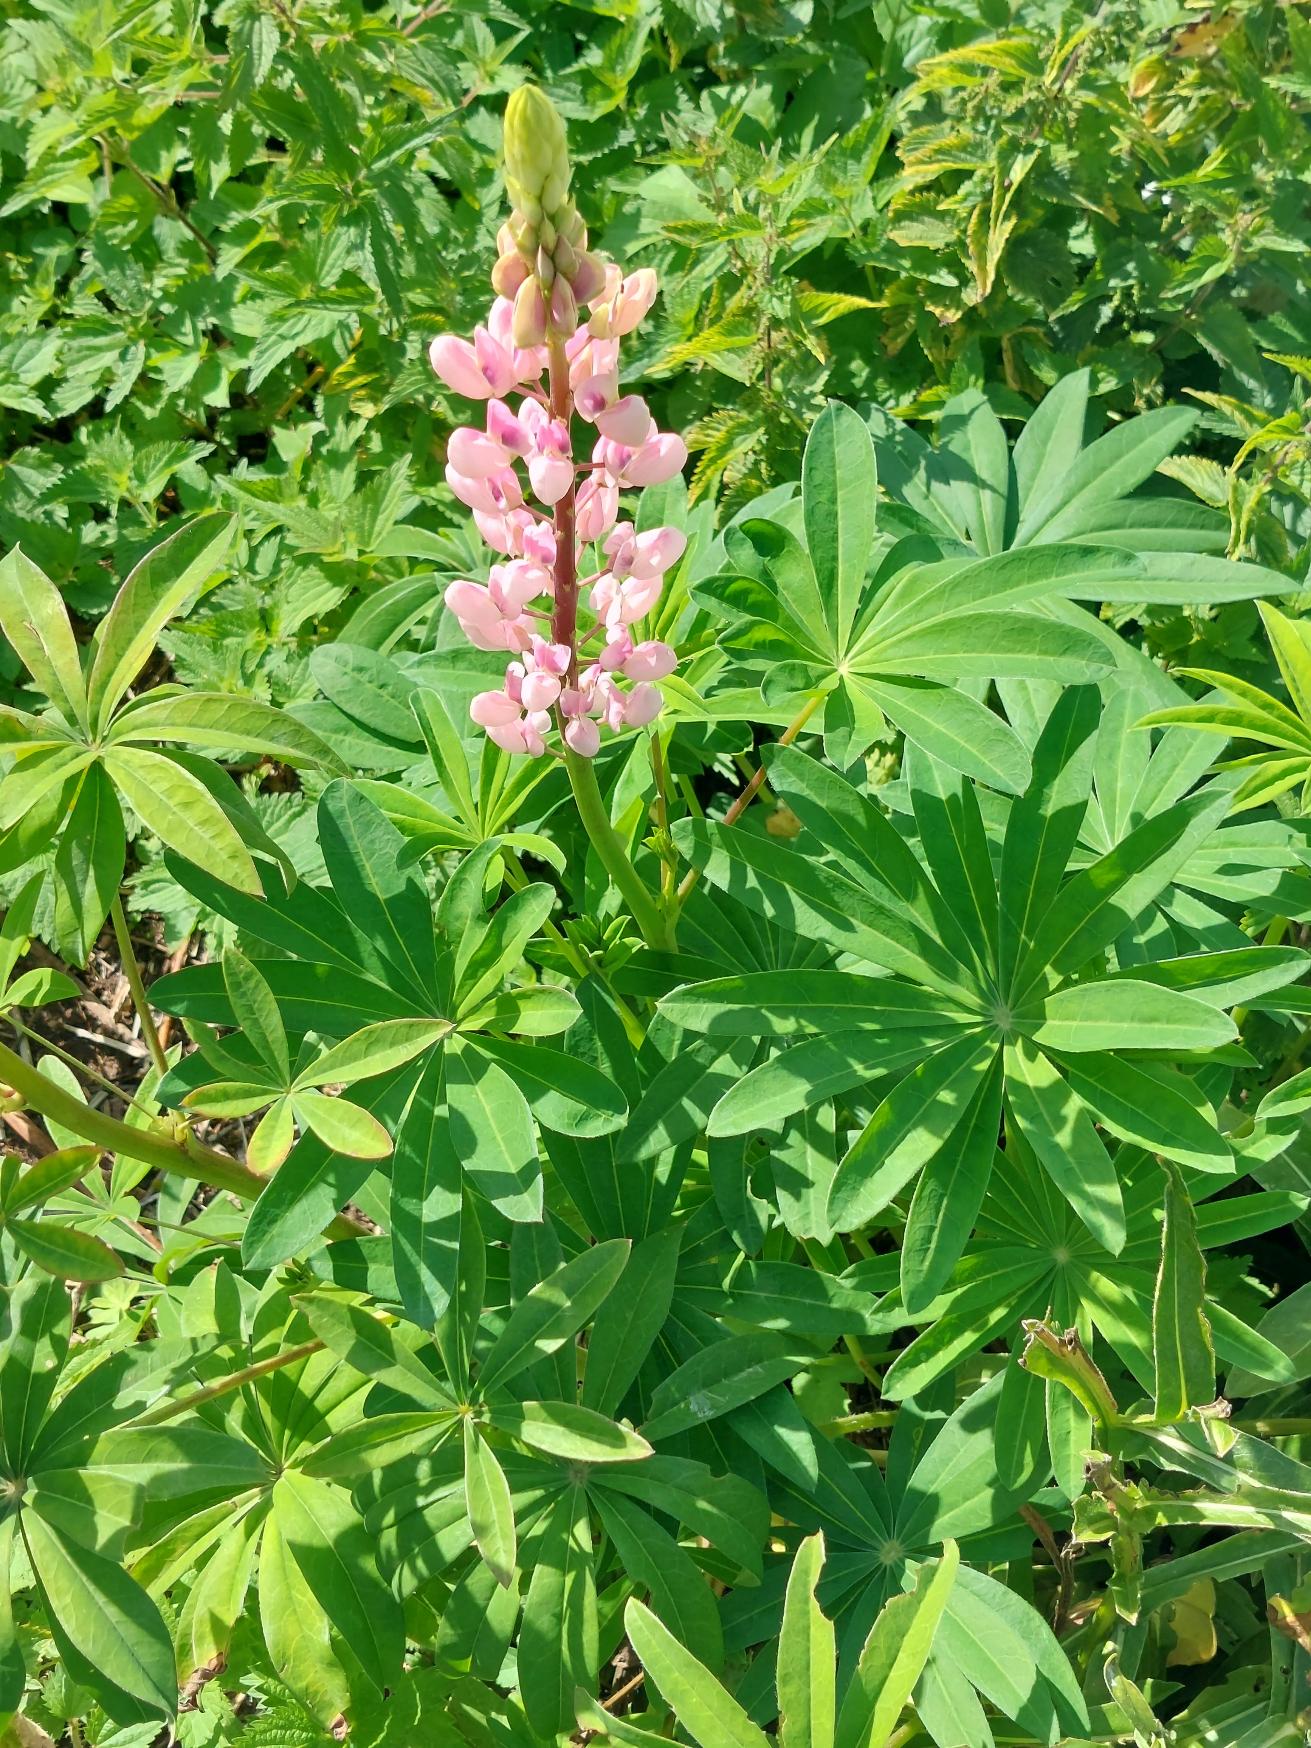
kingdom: Plantae
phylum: Tracheophyta
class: Magnoliopsida
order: Fabales
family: Fabaceae
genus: Lupinus
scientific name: Lupinus polyphyllus
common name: Mangebladet lupin
